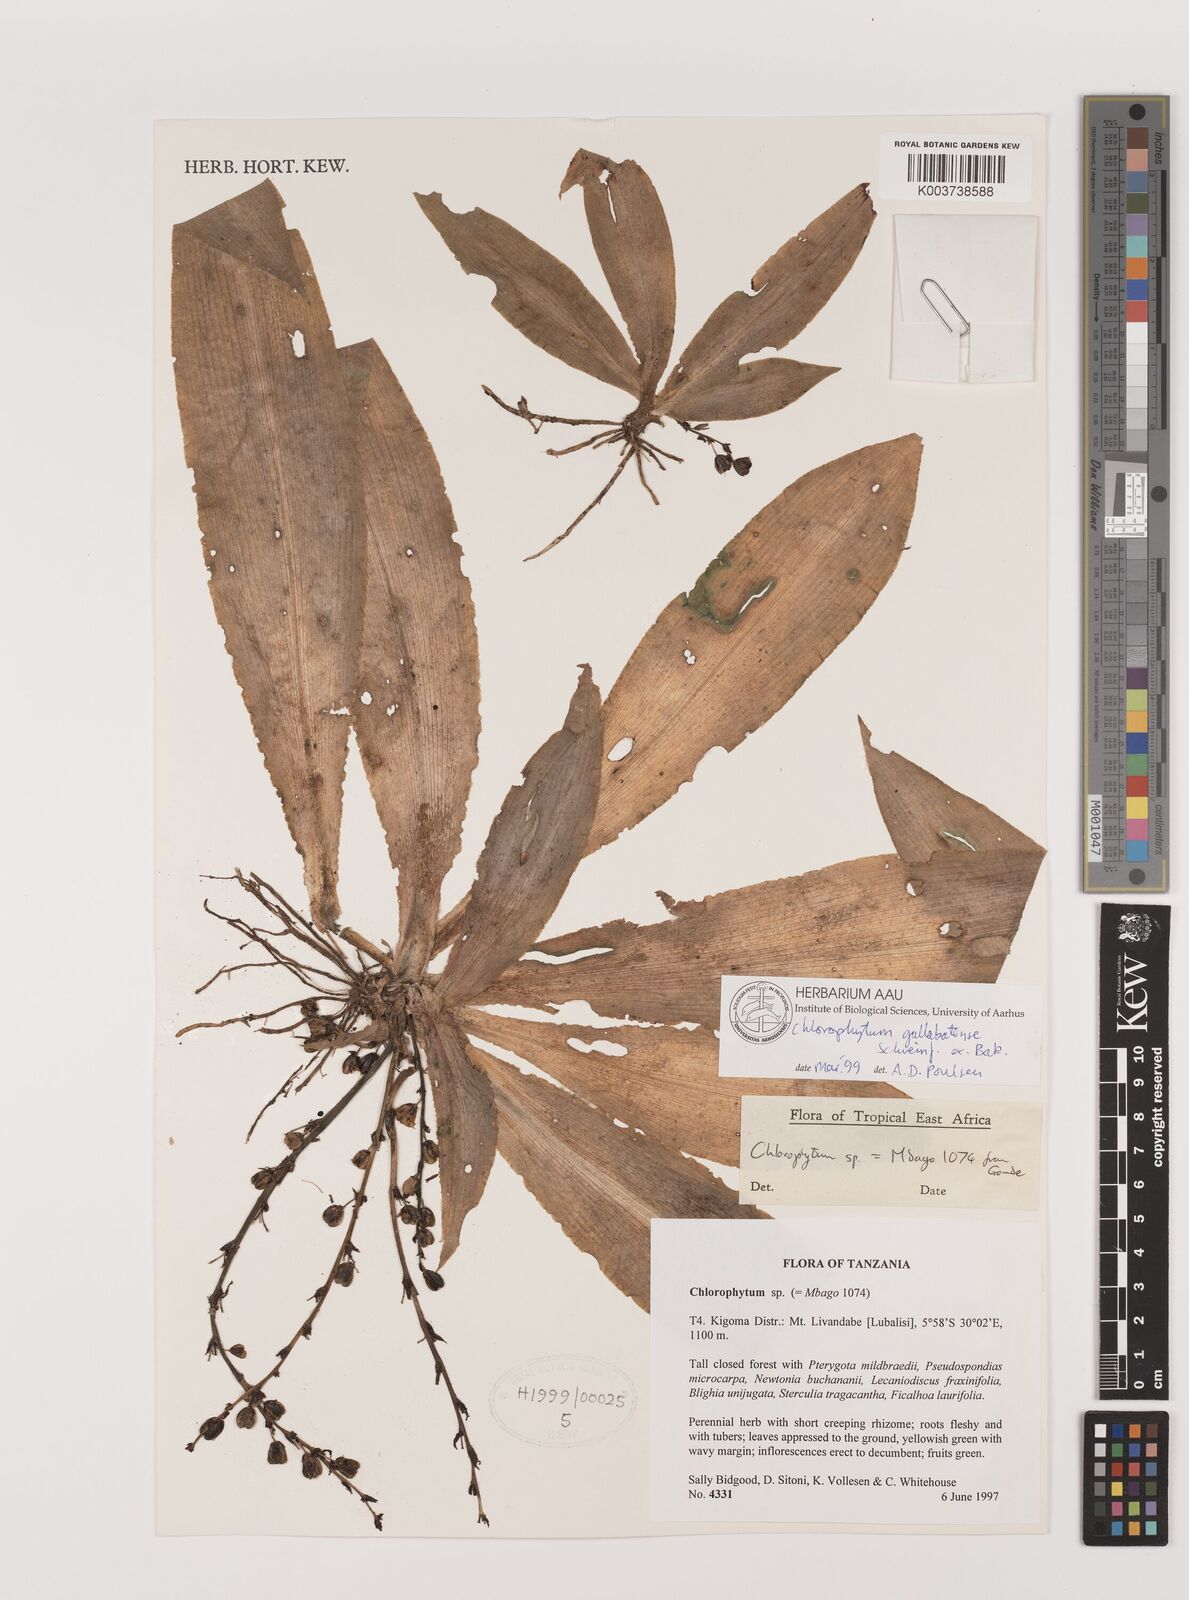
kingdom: Plantae
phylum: Tracheophyta
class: Liliopsida
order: Asparagales
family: Asparagaceae
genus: Chlorophytum
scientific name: Chlorophytum gallabatense
